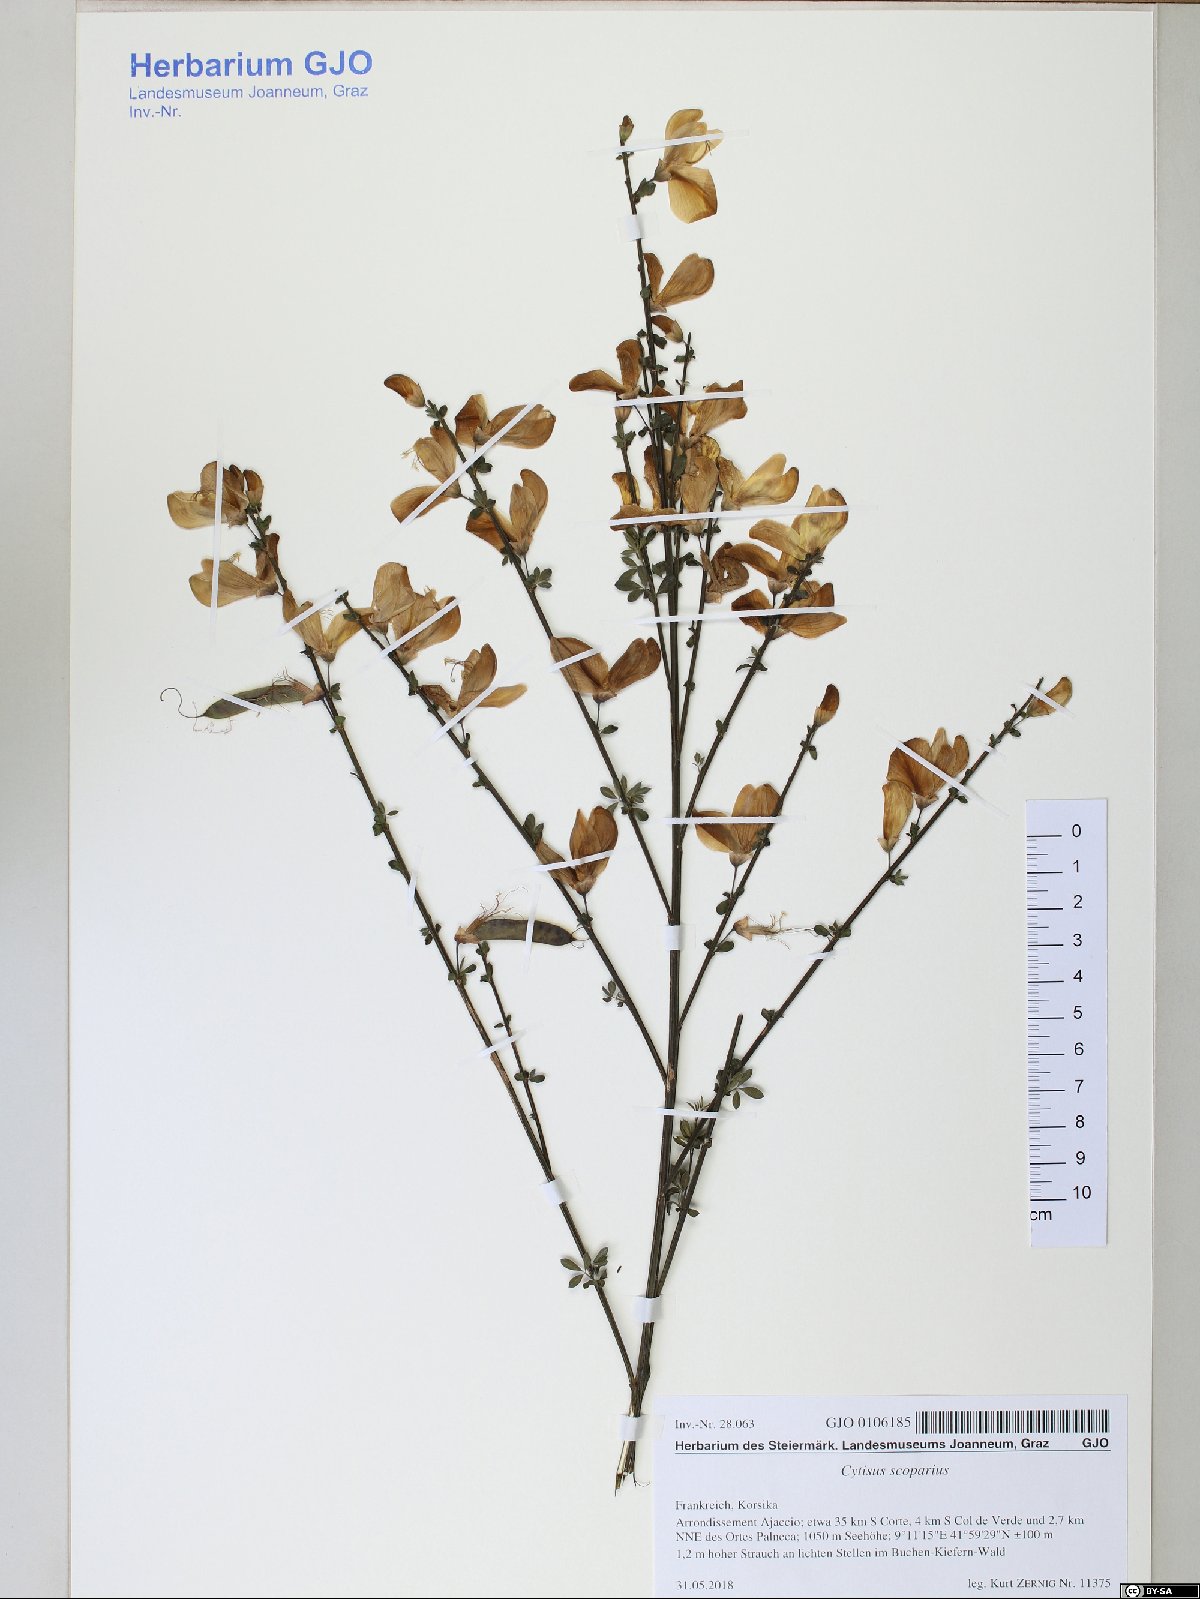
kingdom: Plantae
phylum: Tracheophyta
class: Magnoliopsida
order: Fabales
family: Fabaceae
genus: Cytisus
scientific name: Cytisus scoparius
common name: Scotch broom
